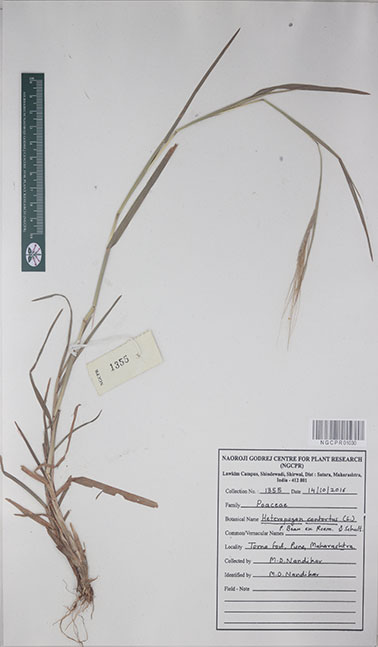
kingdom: Plantae
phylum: Tracheophyta
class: Liliopsida
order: Poales
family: Poaceae
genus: Heteropogon
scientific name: Heteropogon contortus
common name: Tanglehead
